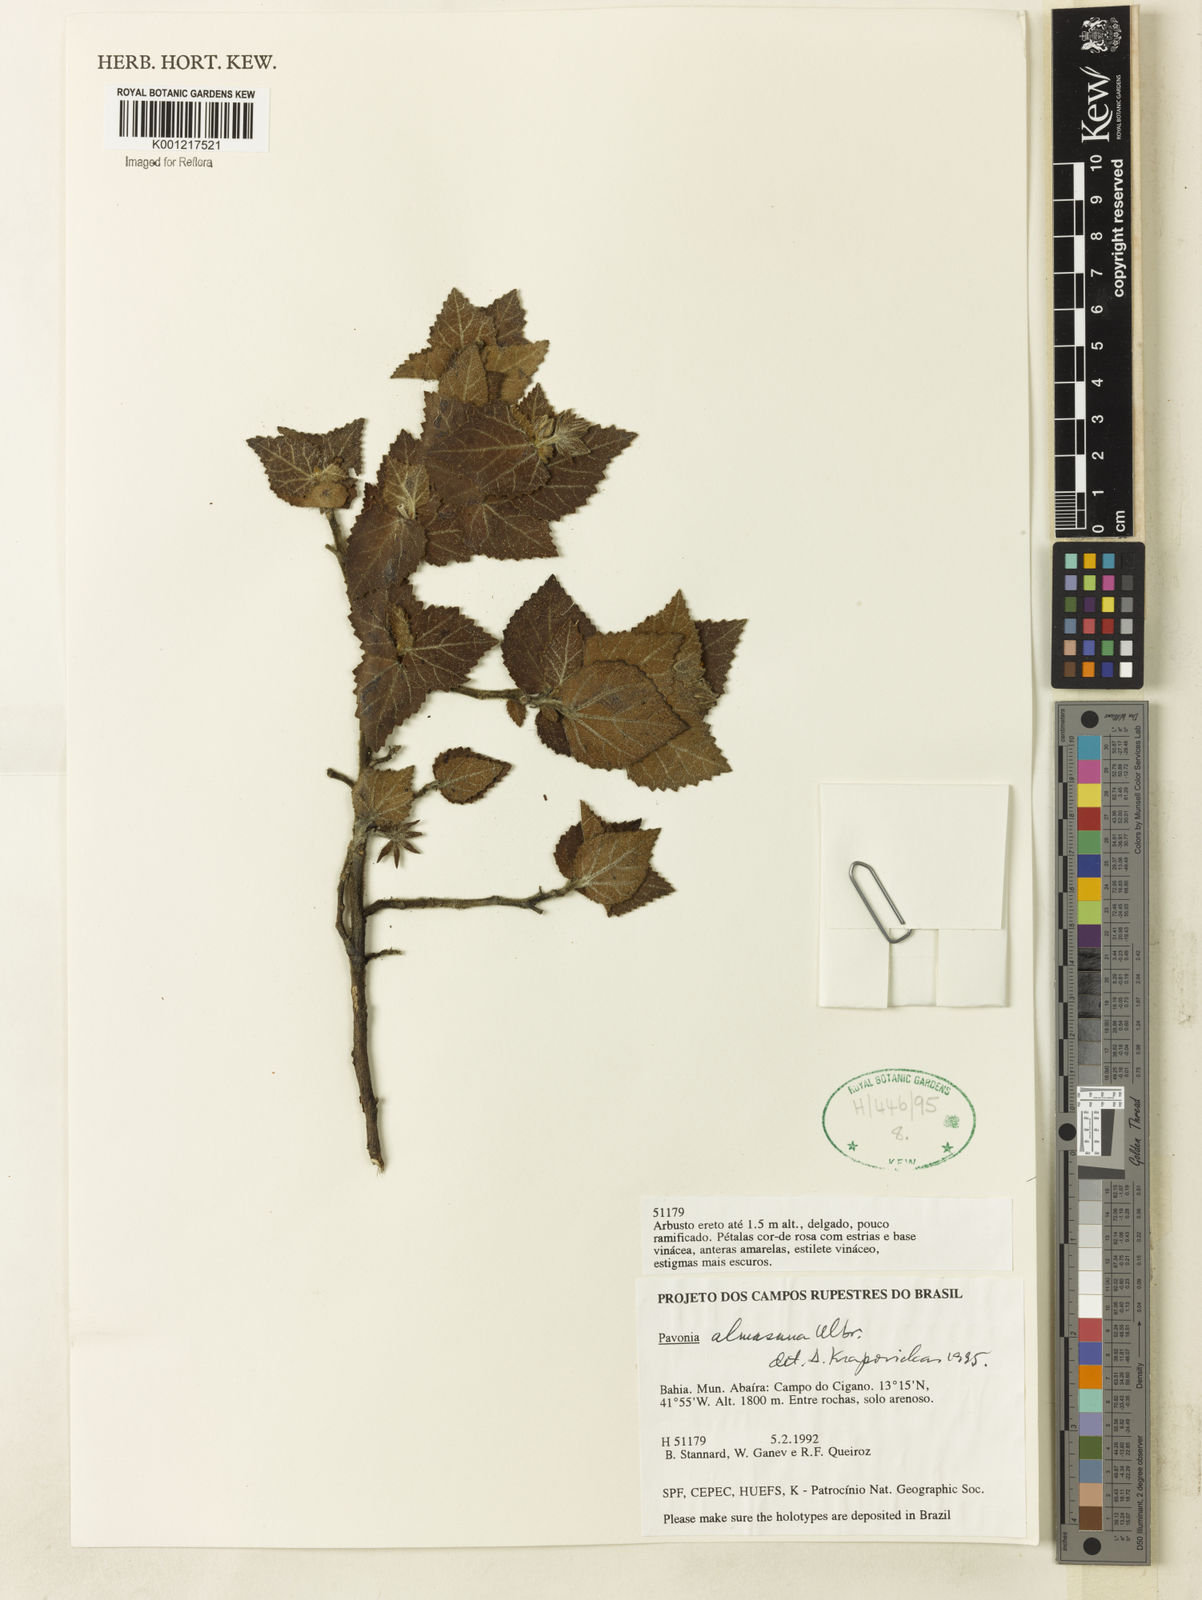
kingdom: Plantae
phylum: Tracheophyta
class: Magnoliopsida
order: Malvales
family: Malvaceae
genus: Pavonia
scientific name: Pavonia almasana
